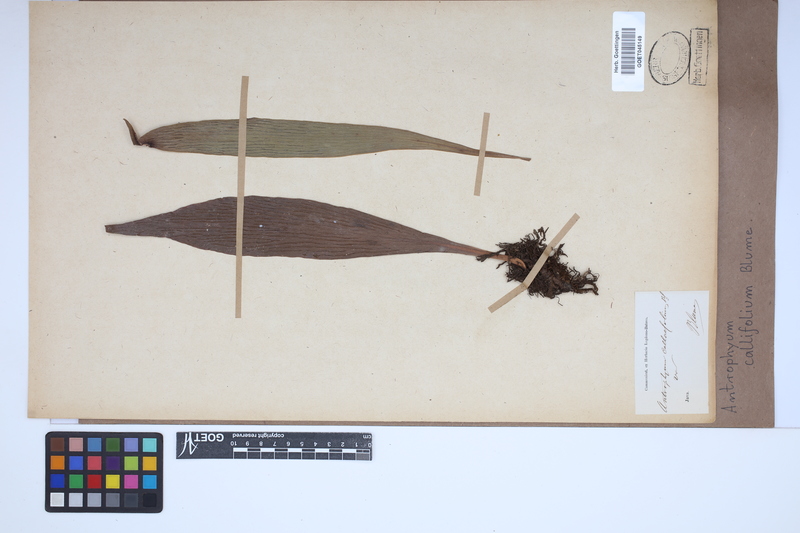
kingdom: Plantae
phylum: Tracheophyta
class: Polypodiopsida
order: Polypodiales
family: Pteridaceae
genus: Antrophyum
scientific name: Antrophyum callifolium
